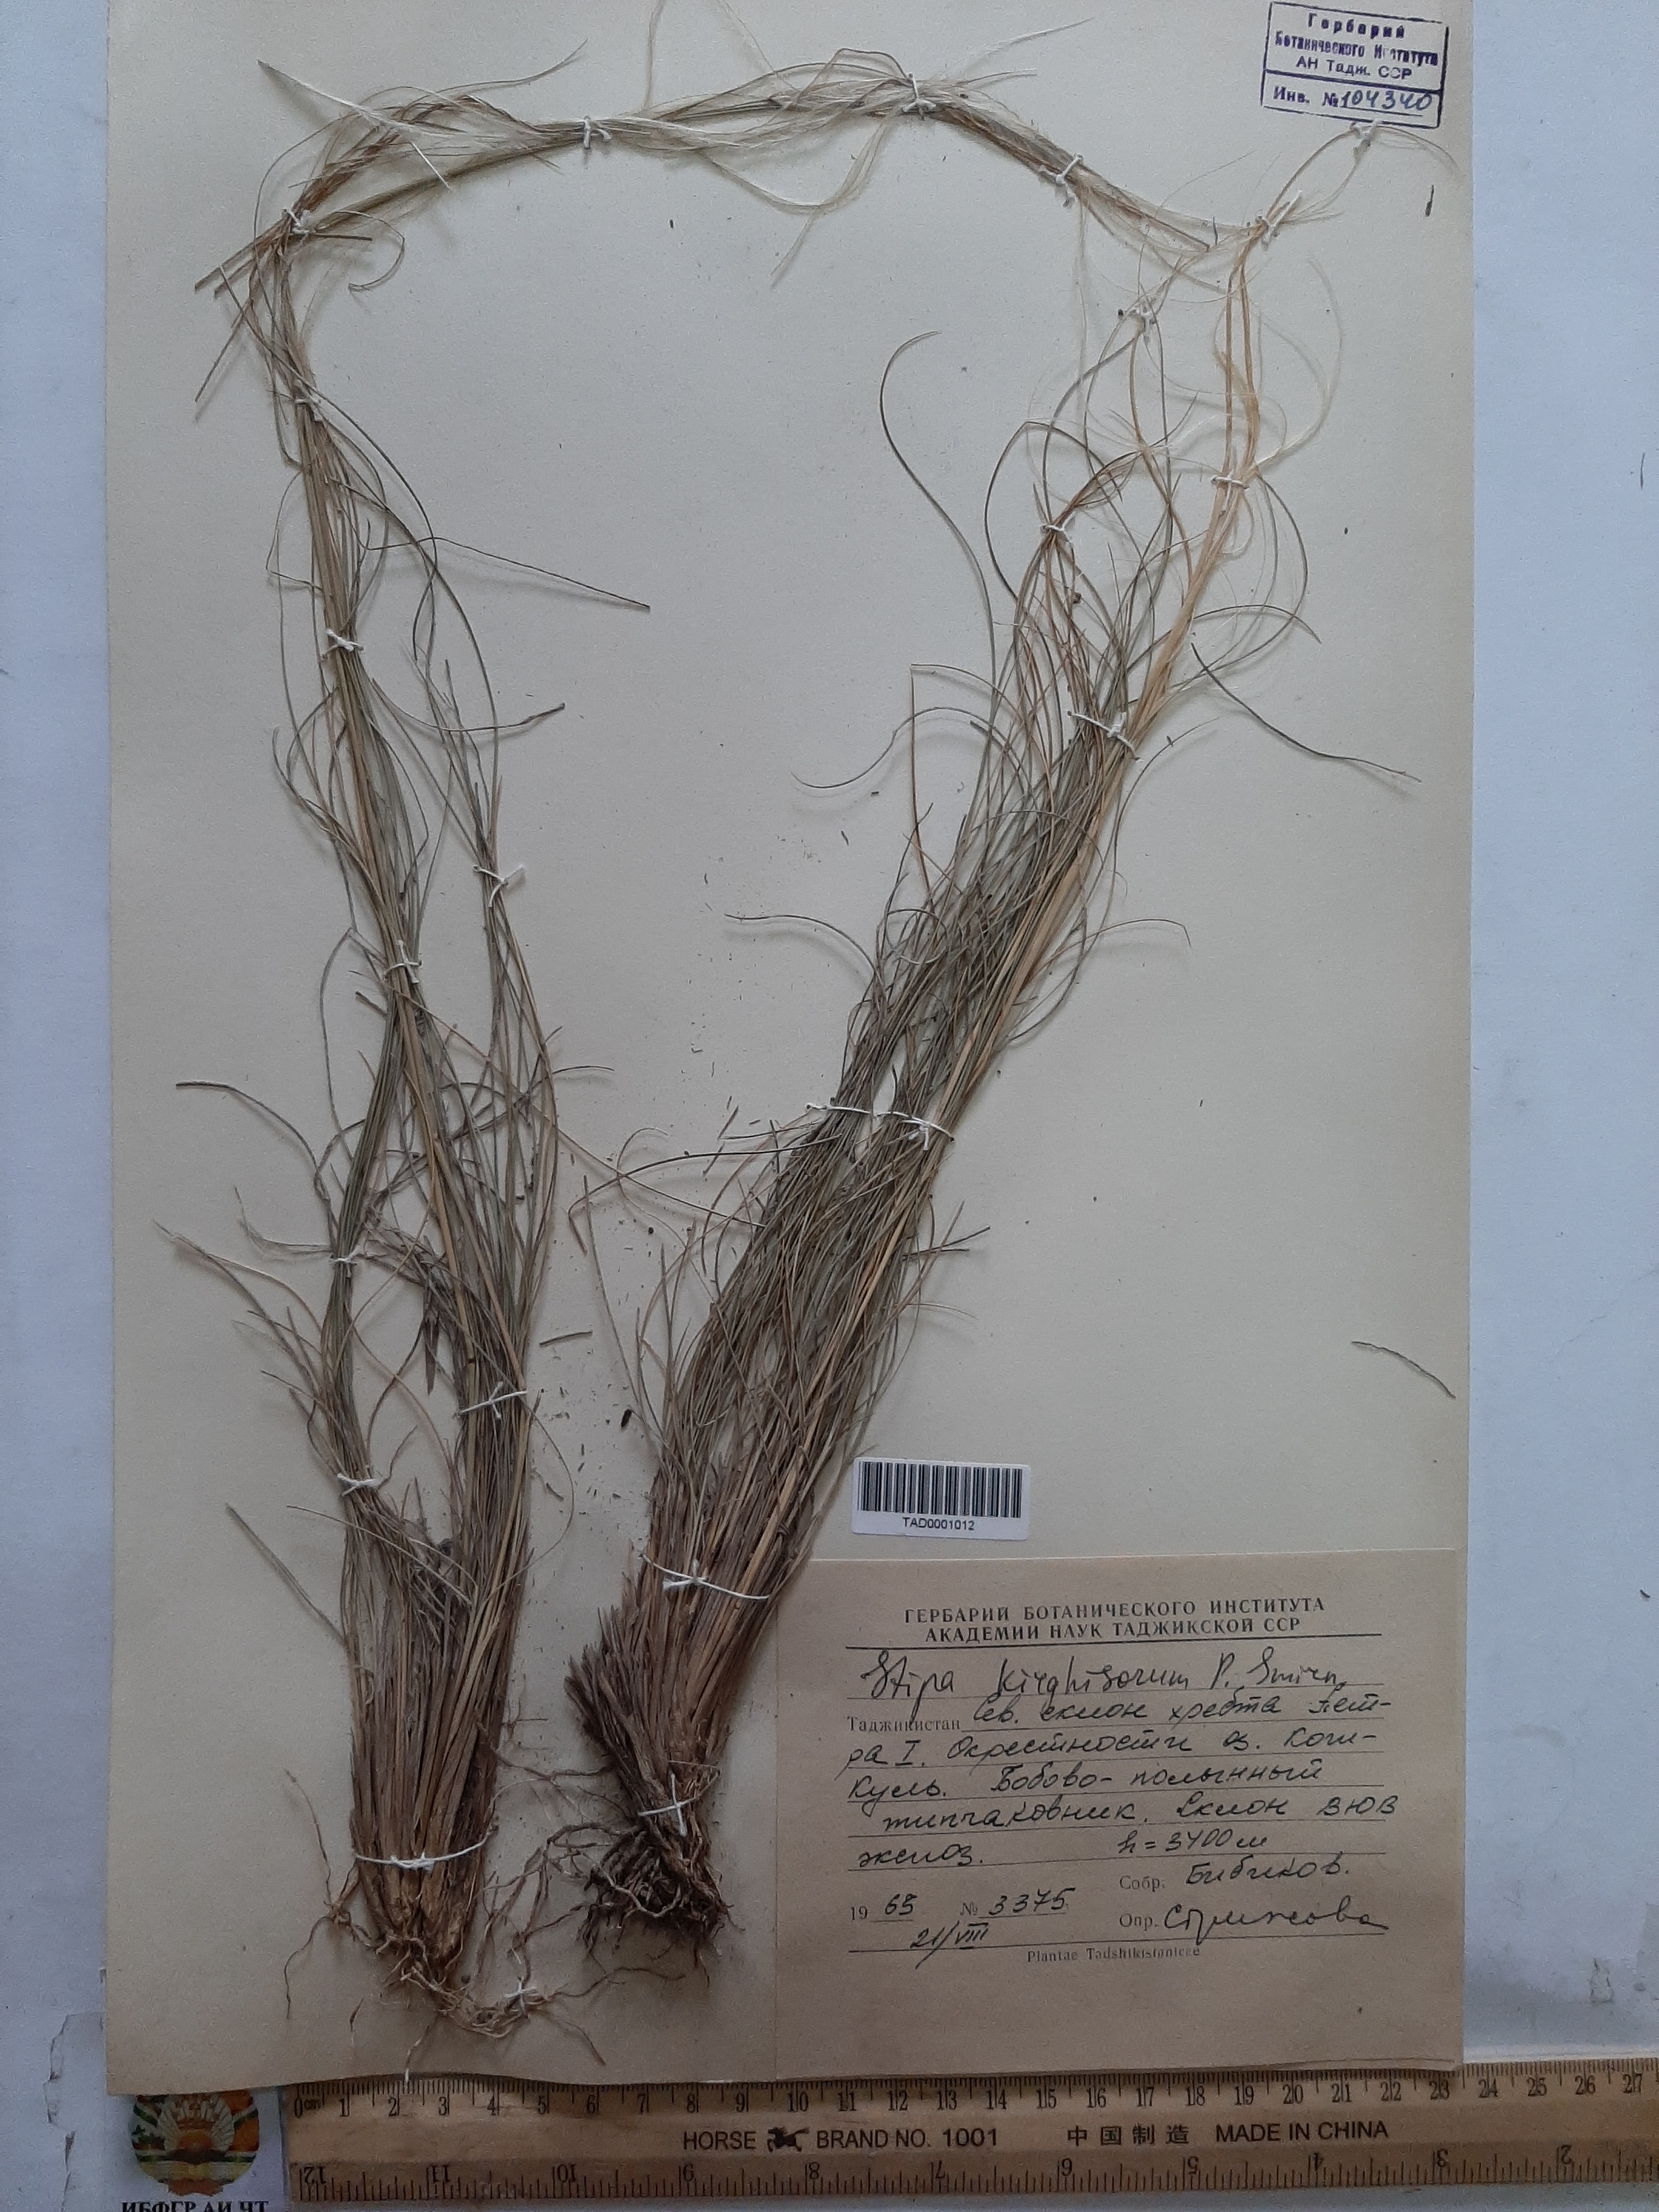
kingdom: Plantae
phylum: Tracheophyta
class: Liliopsida
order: Poales
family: Poaceae
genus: Stipa
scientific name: Stipa kirghisorum
